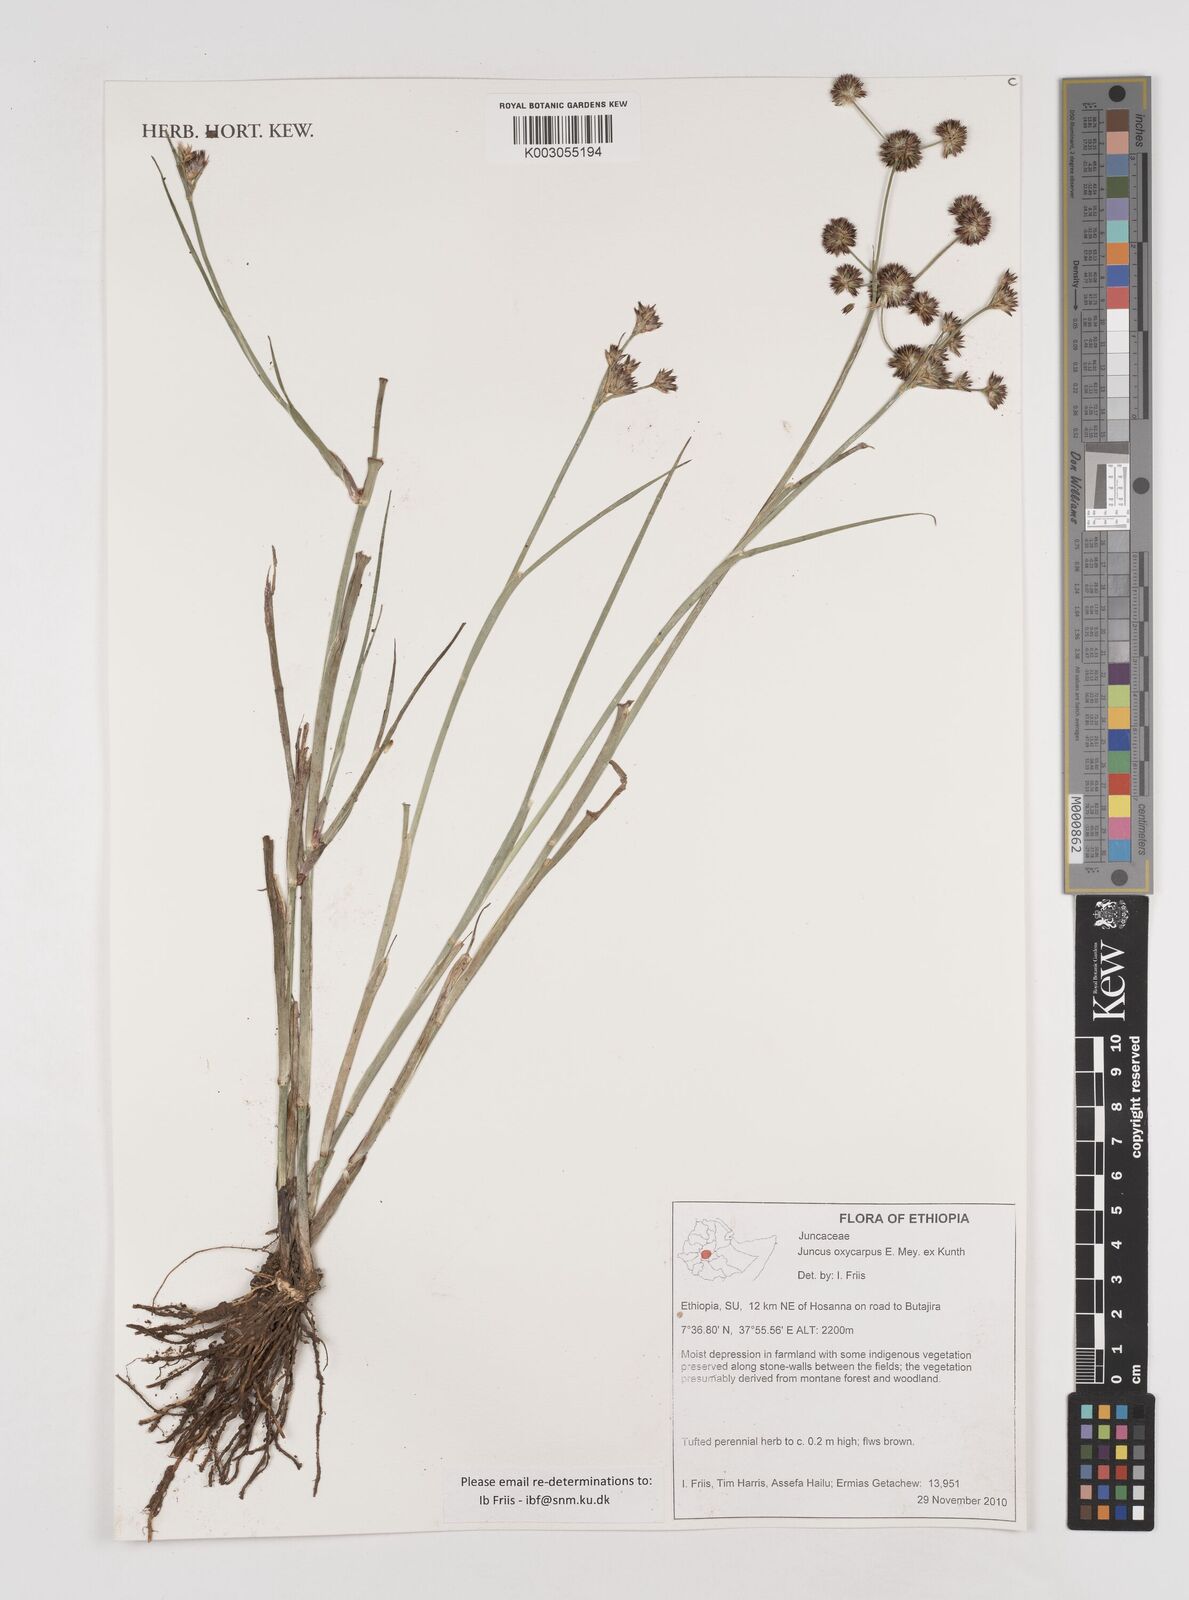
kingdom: Plantae
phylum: Tracheophyta
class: Liliopsida
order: Poales
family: Juncaceae
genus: Juncus
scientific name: Juncus oxycarpus
